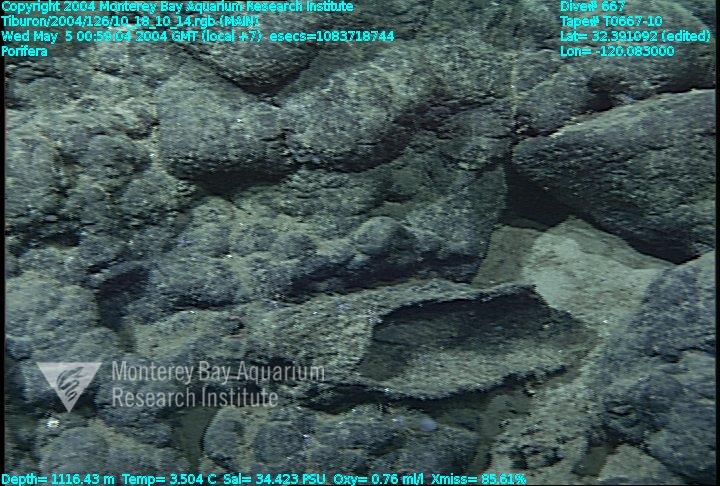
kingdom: Animalia
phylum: Porifera
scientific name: Porifera
